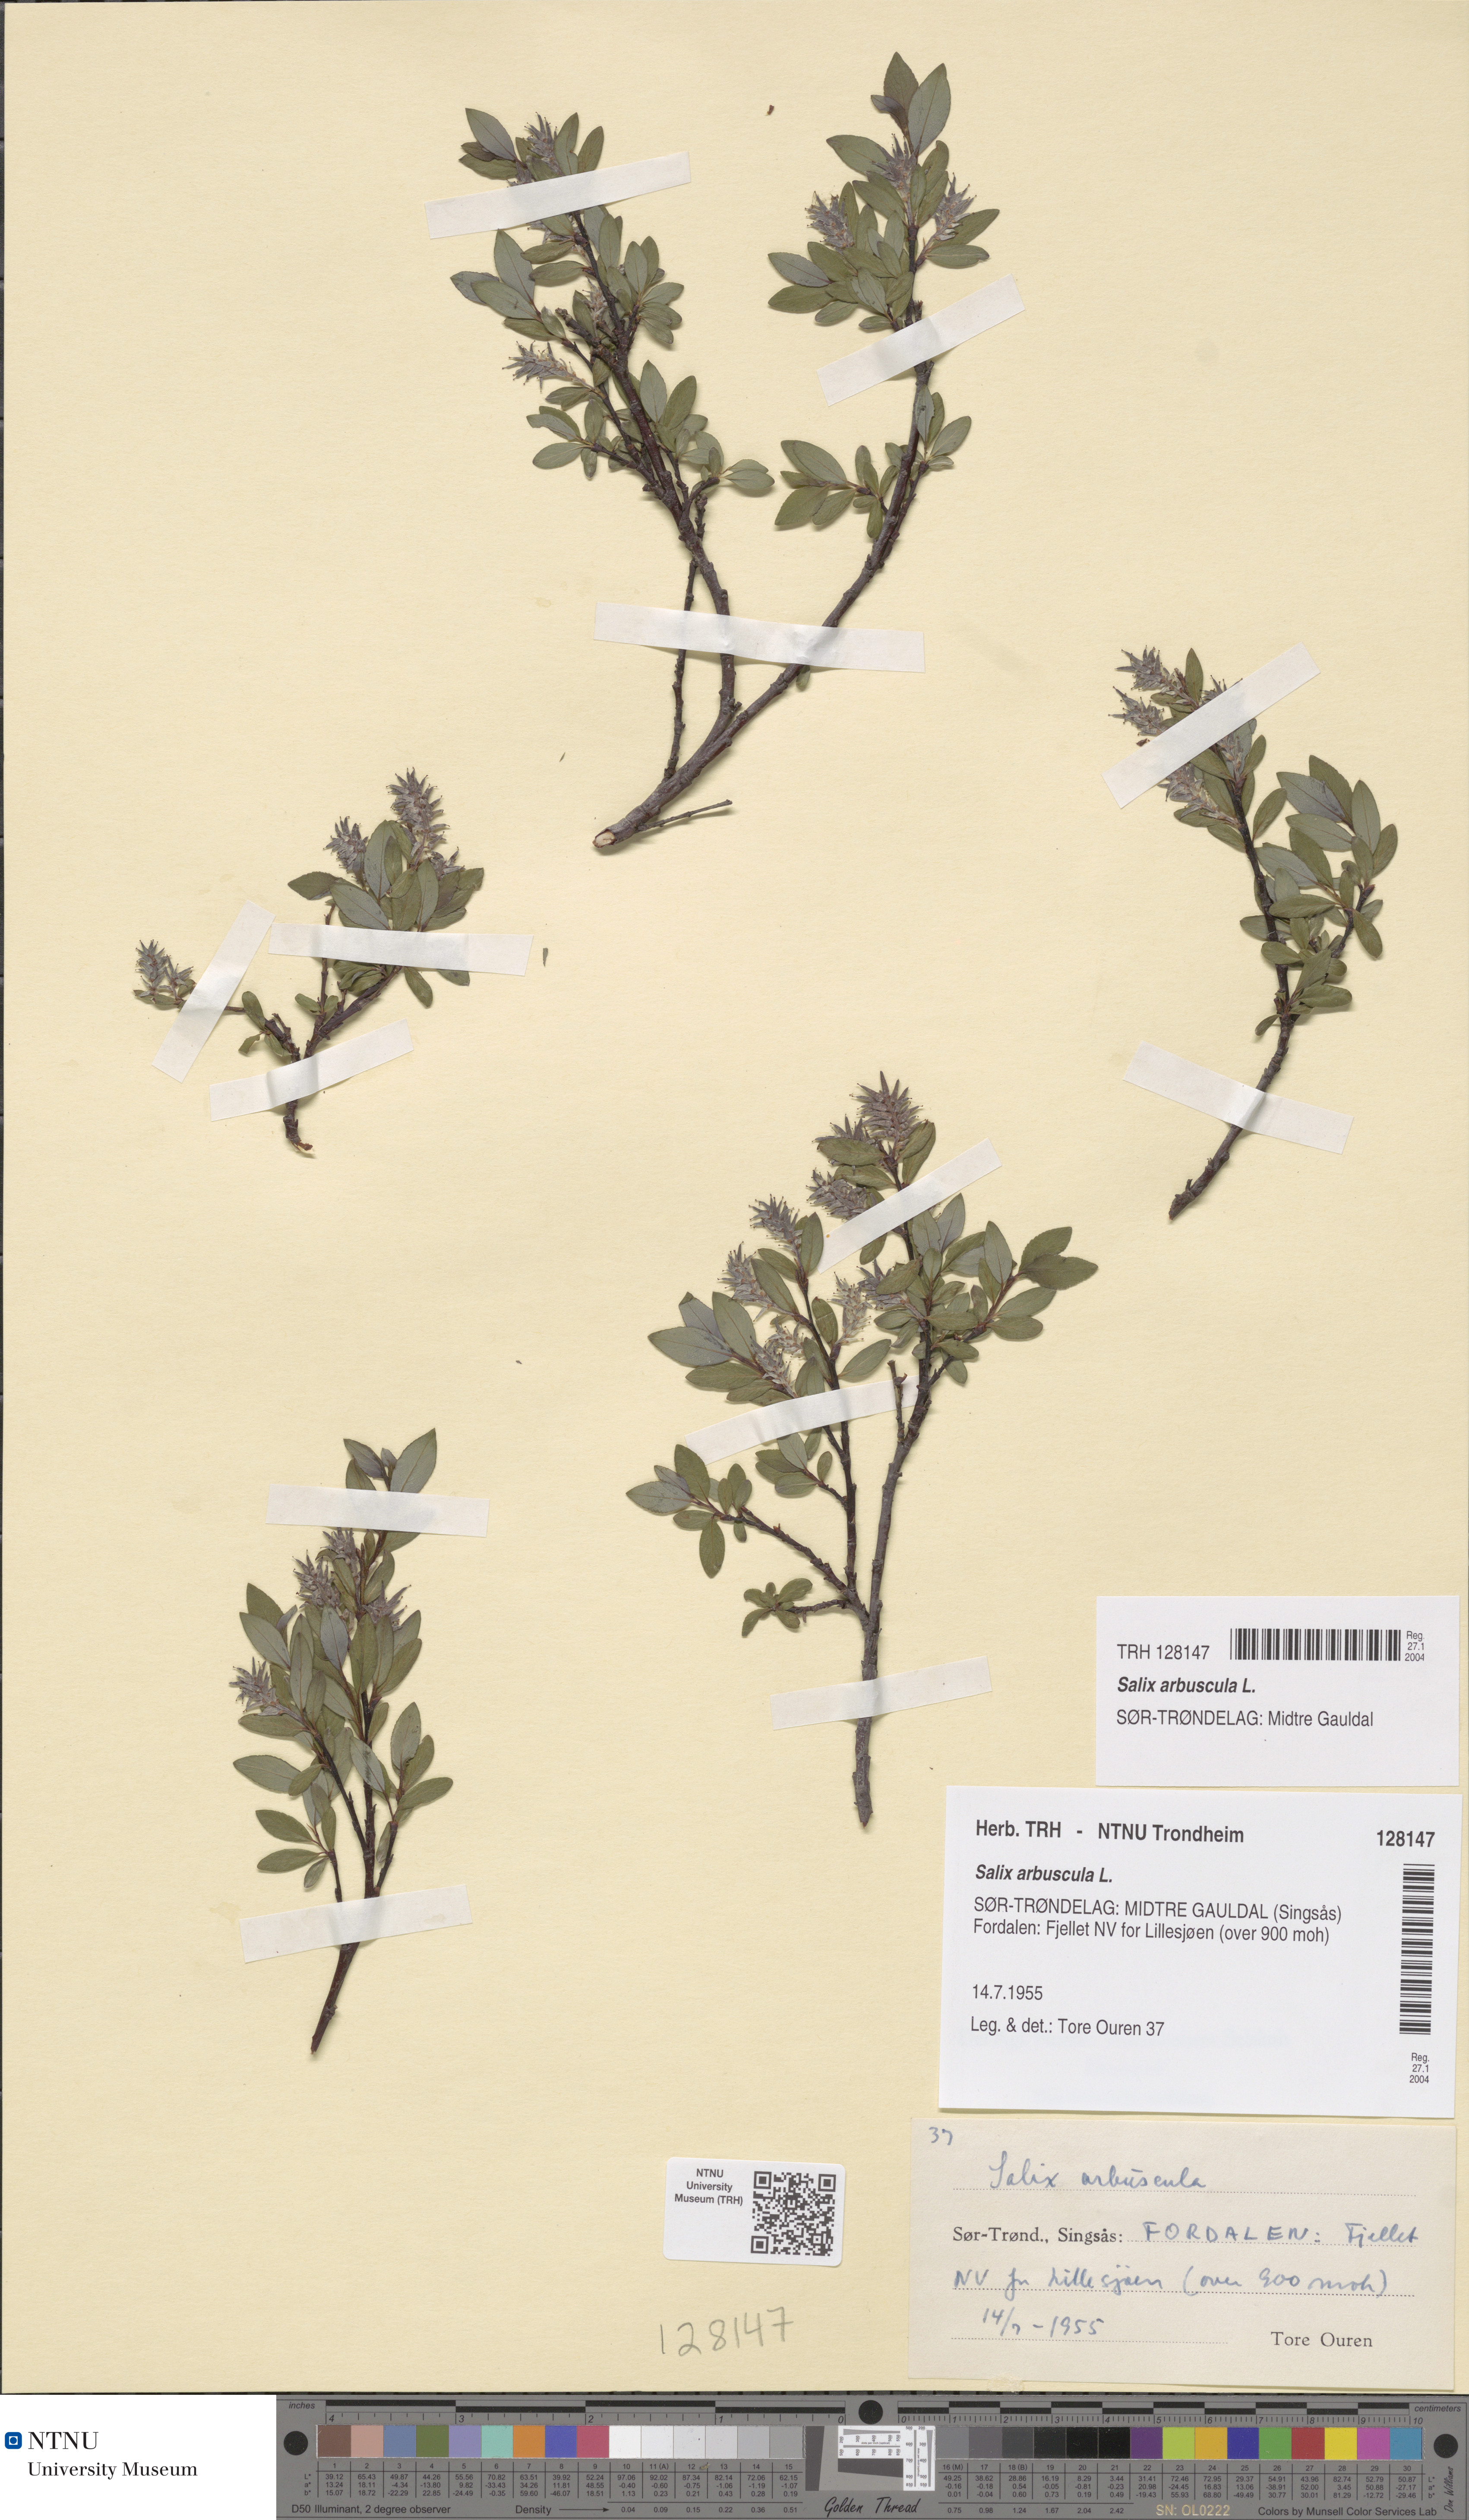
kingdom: Plantae
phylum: Tracheophyta
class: Magnoliopsida
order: Malpighiales
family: Salicaceae
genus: Salix
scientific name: Salix arbuscula
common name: Mountain willow
